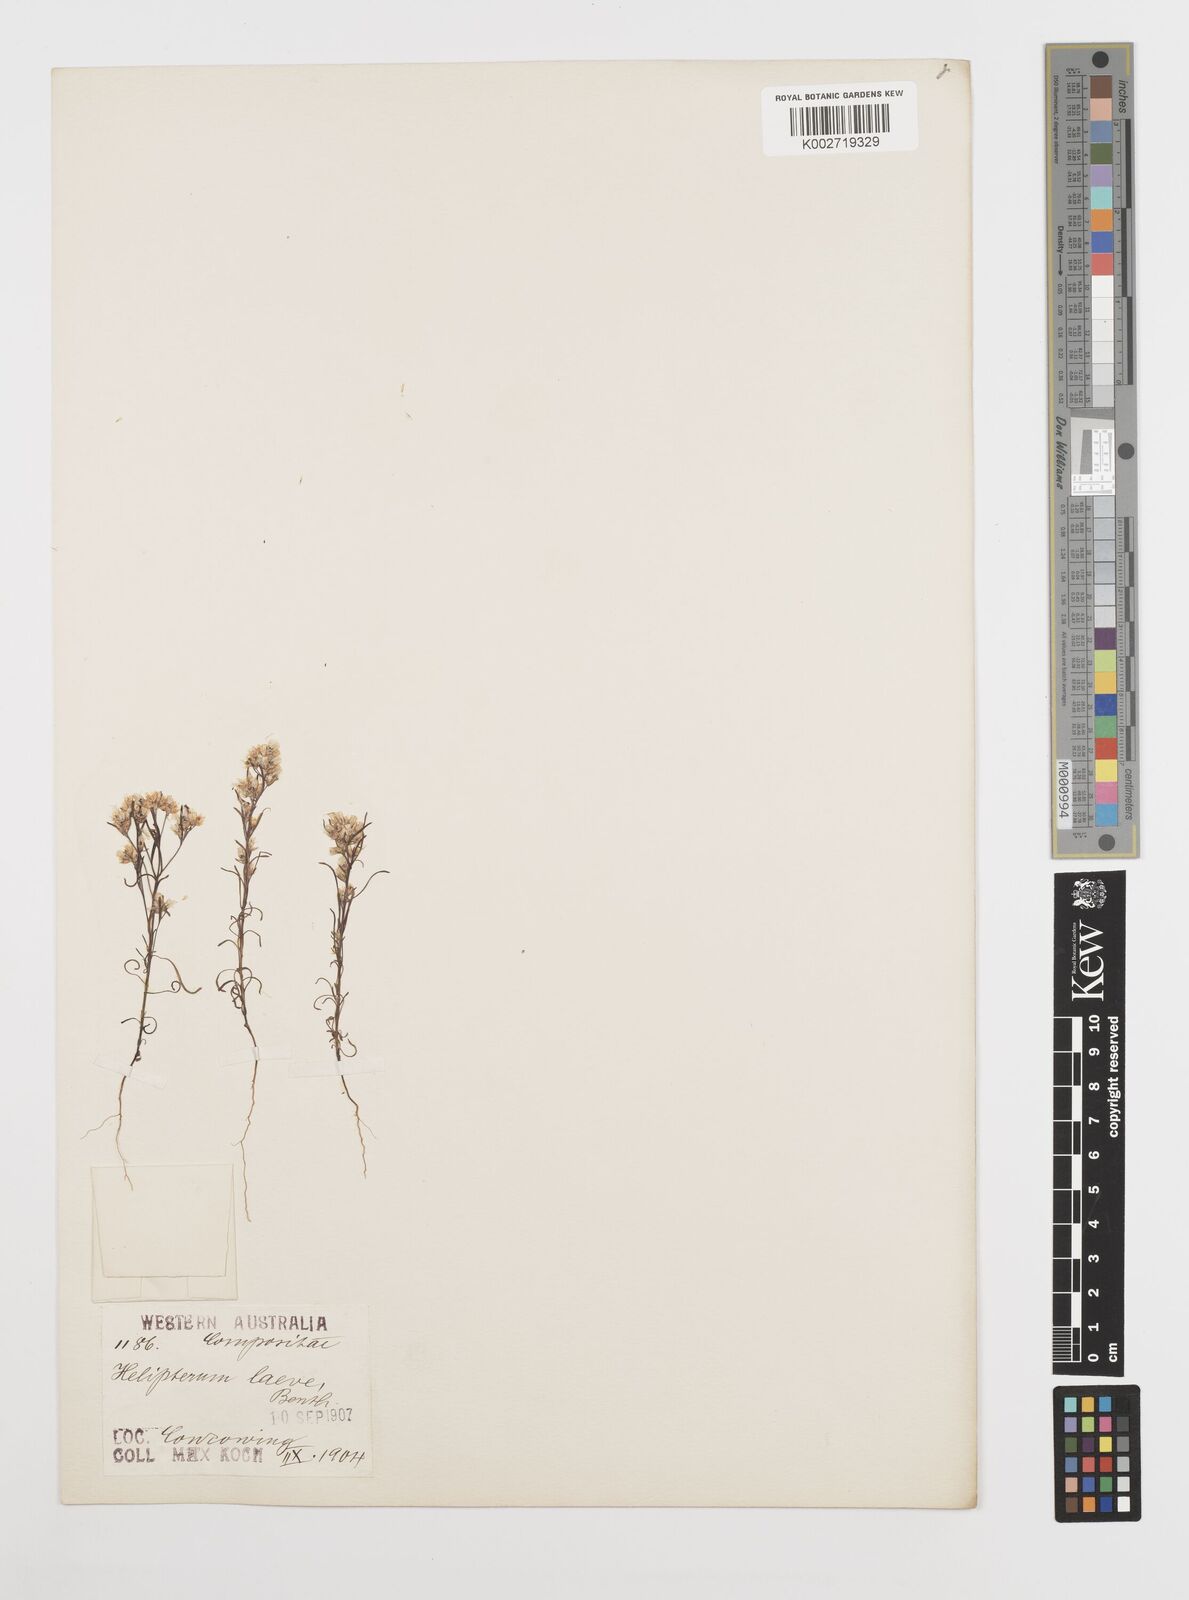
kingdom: Plantae
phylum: Tracheophyta
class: Magnoliopsida
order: Asterales
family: Asteraceae
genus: Rhodanthe
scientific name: Rhodanthe laevis
